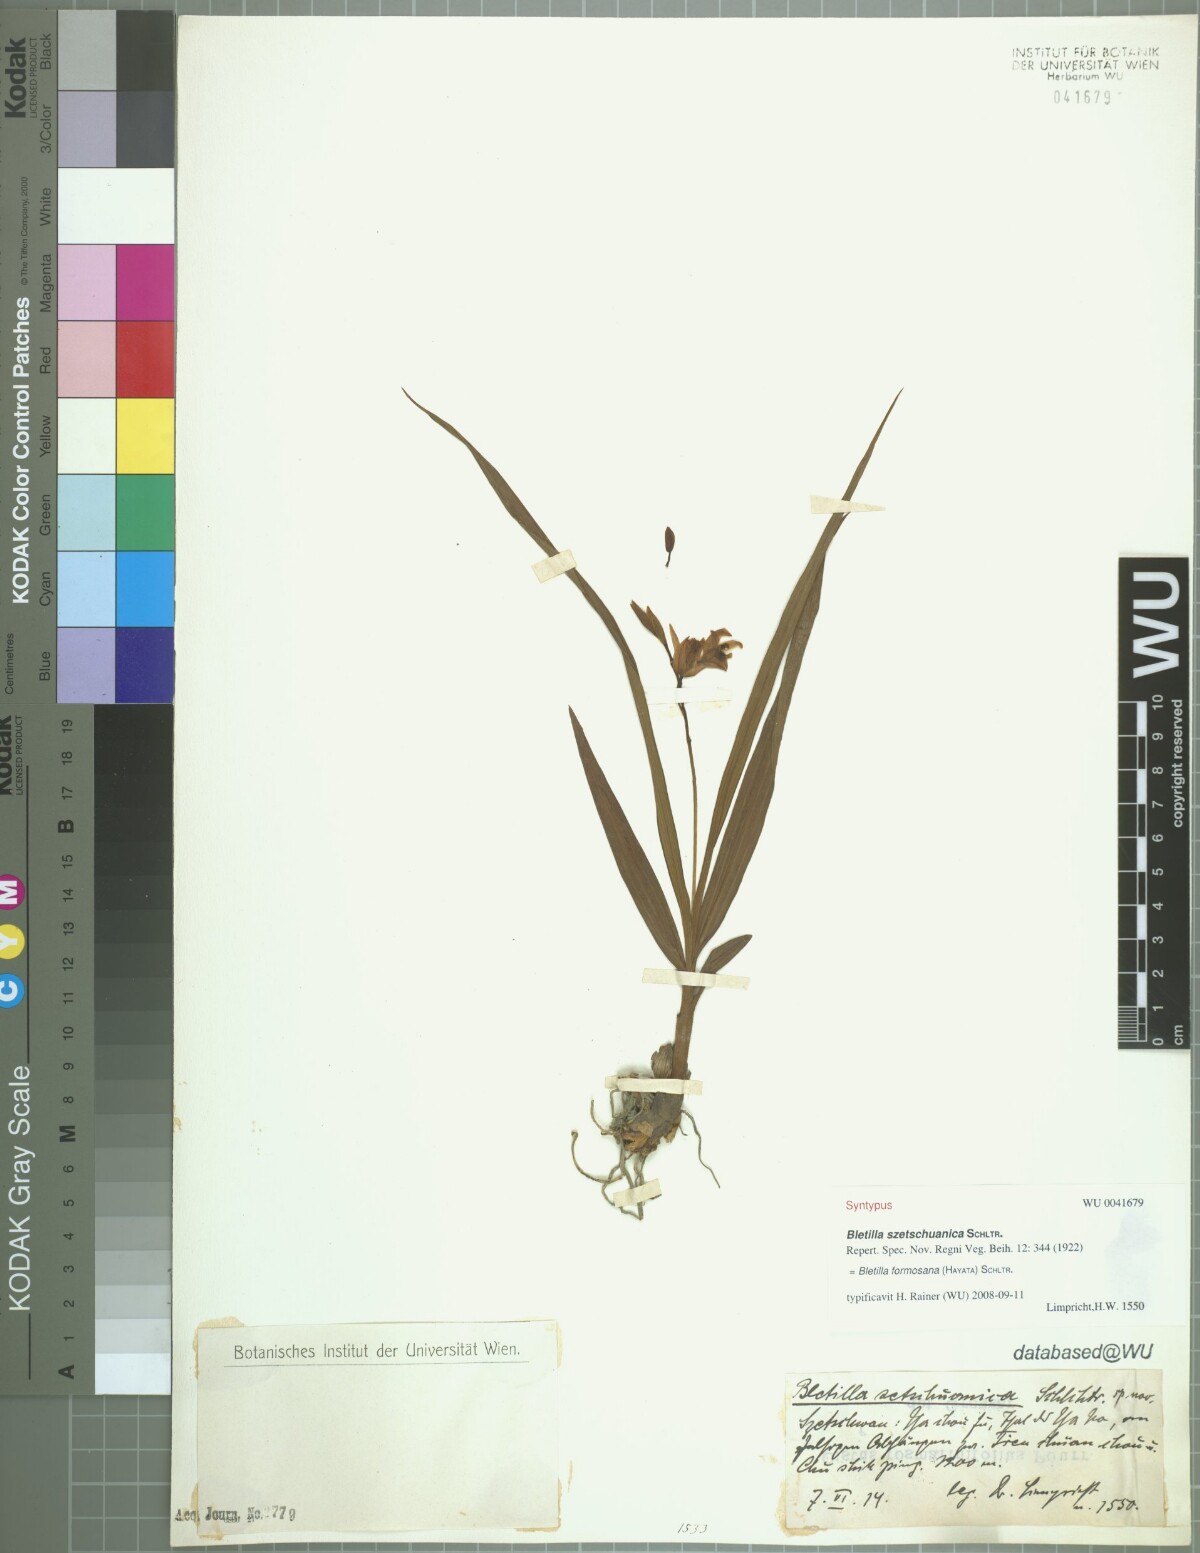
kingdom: Plantae
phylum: Tracheophyta
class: Liliopsida
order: Asparagales
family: Orchidaceae
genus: Bletilla
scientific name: Bletilla formosana
